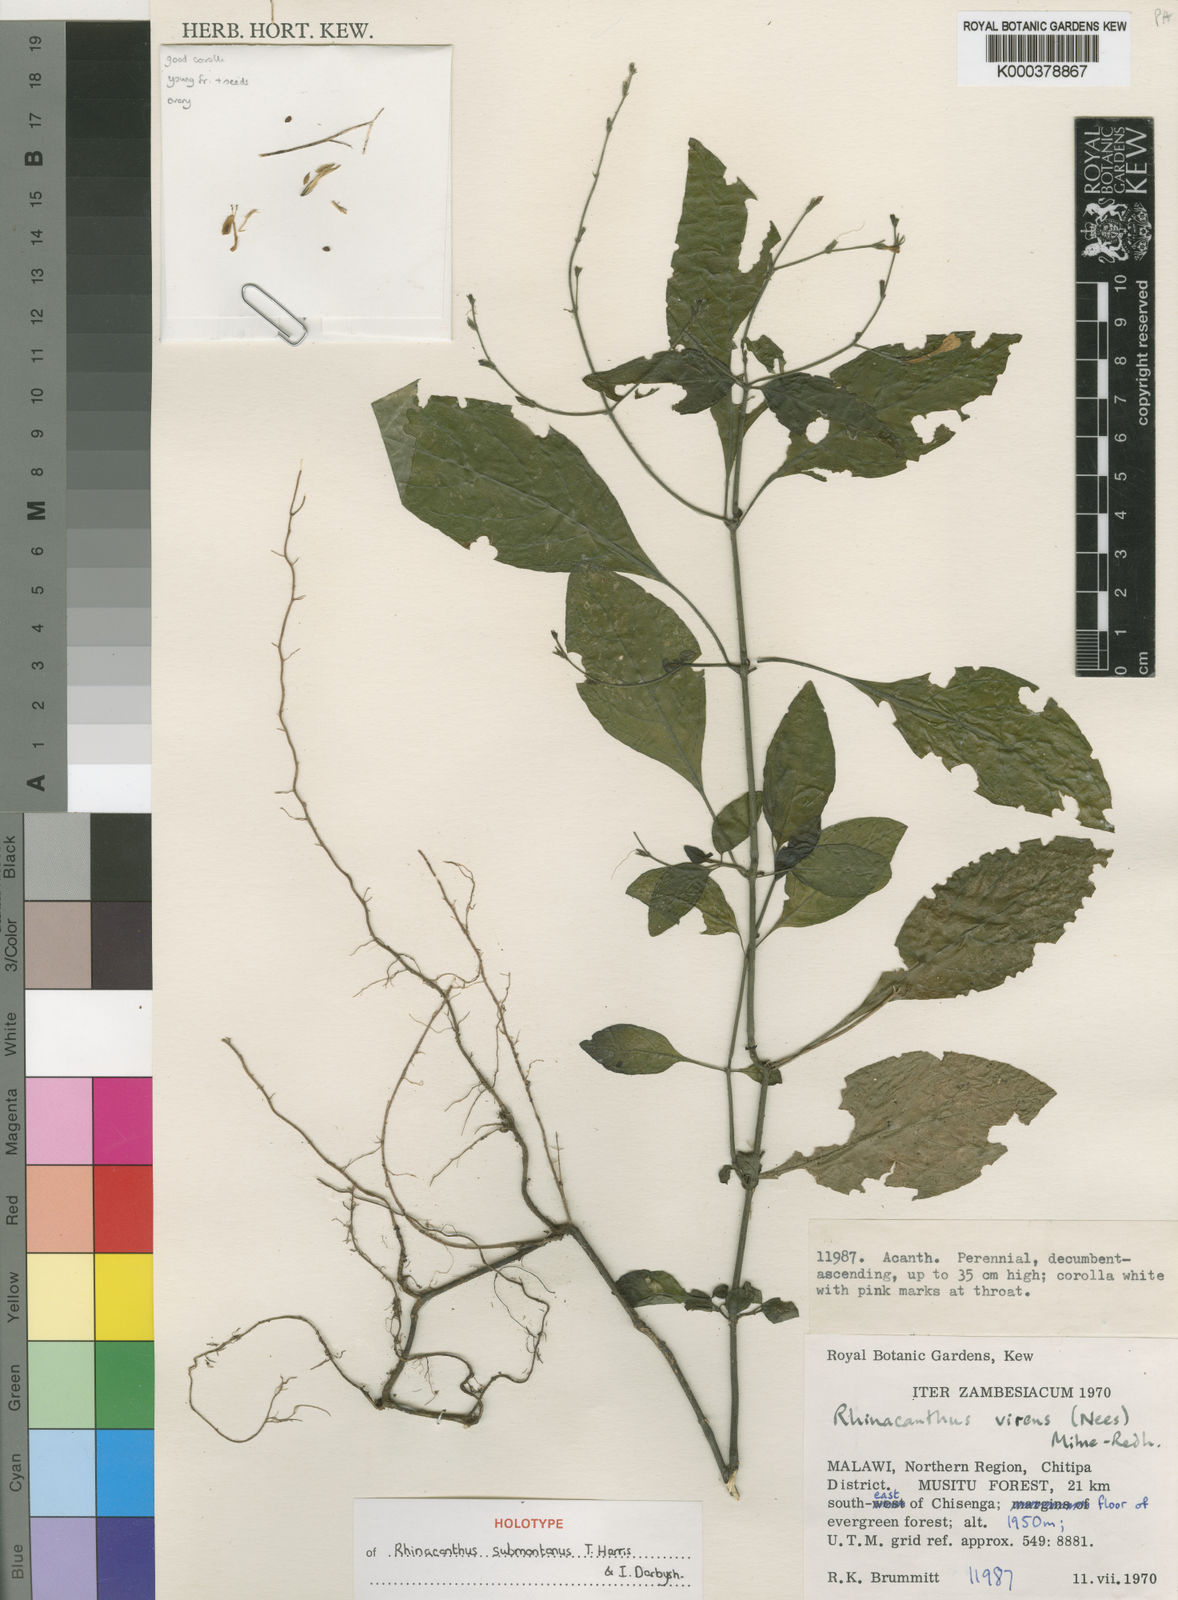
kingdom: Plantae
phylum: Tracheophyta
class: Magnoliopsida
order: Lamiales
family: Acanthaceae
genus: Rhinacanthus
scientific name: Rhinacanthus submontanus
